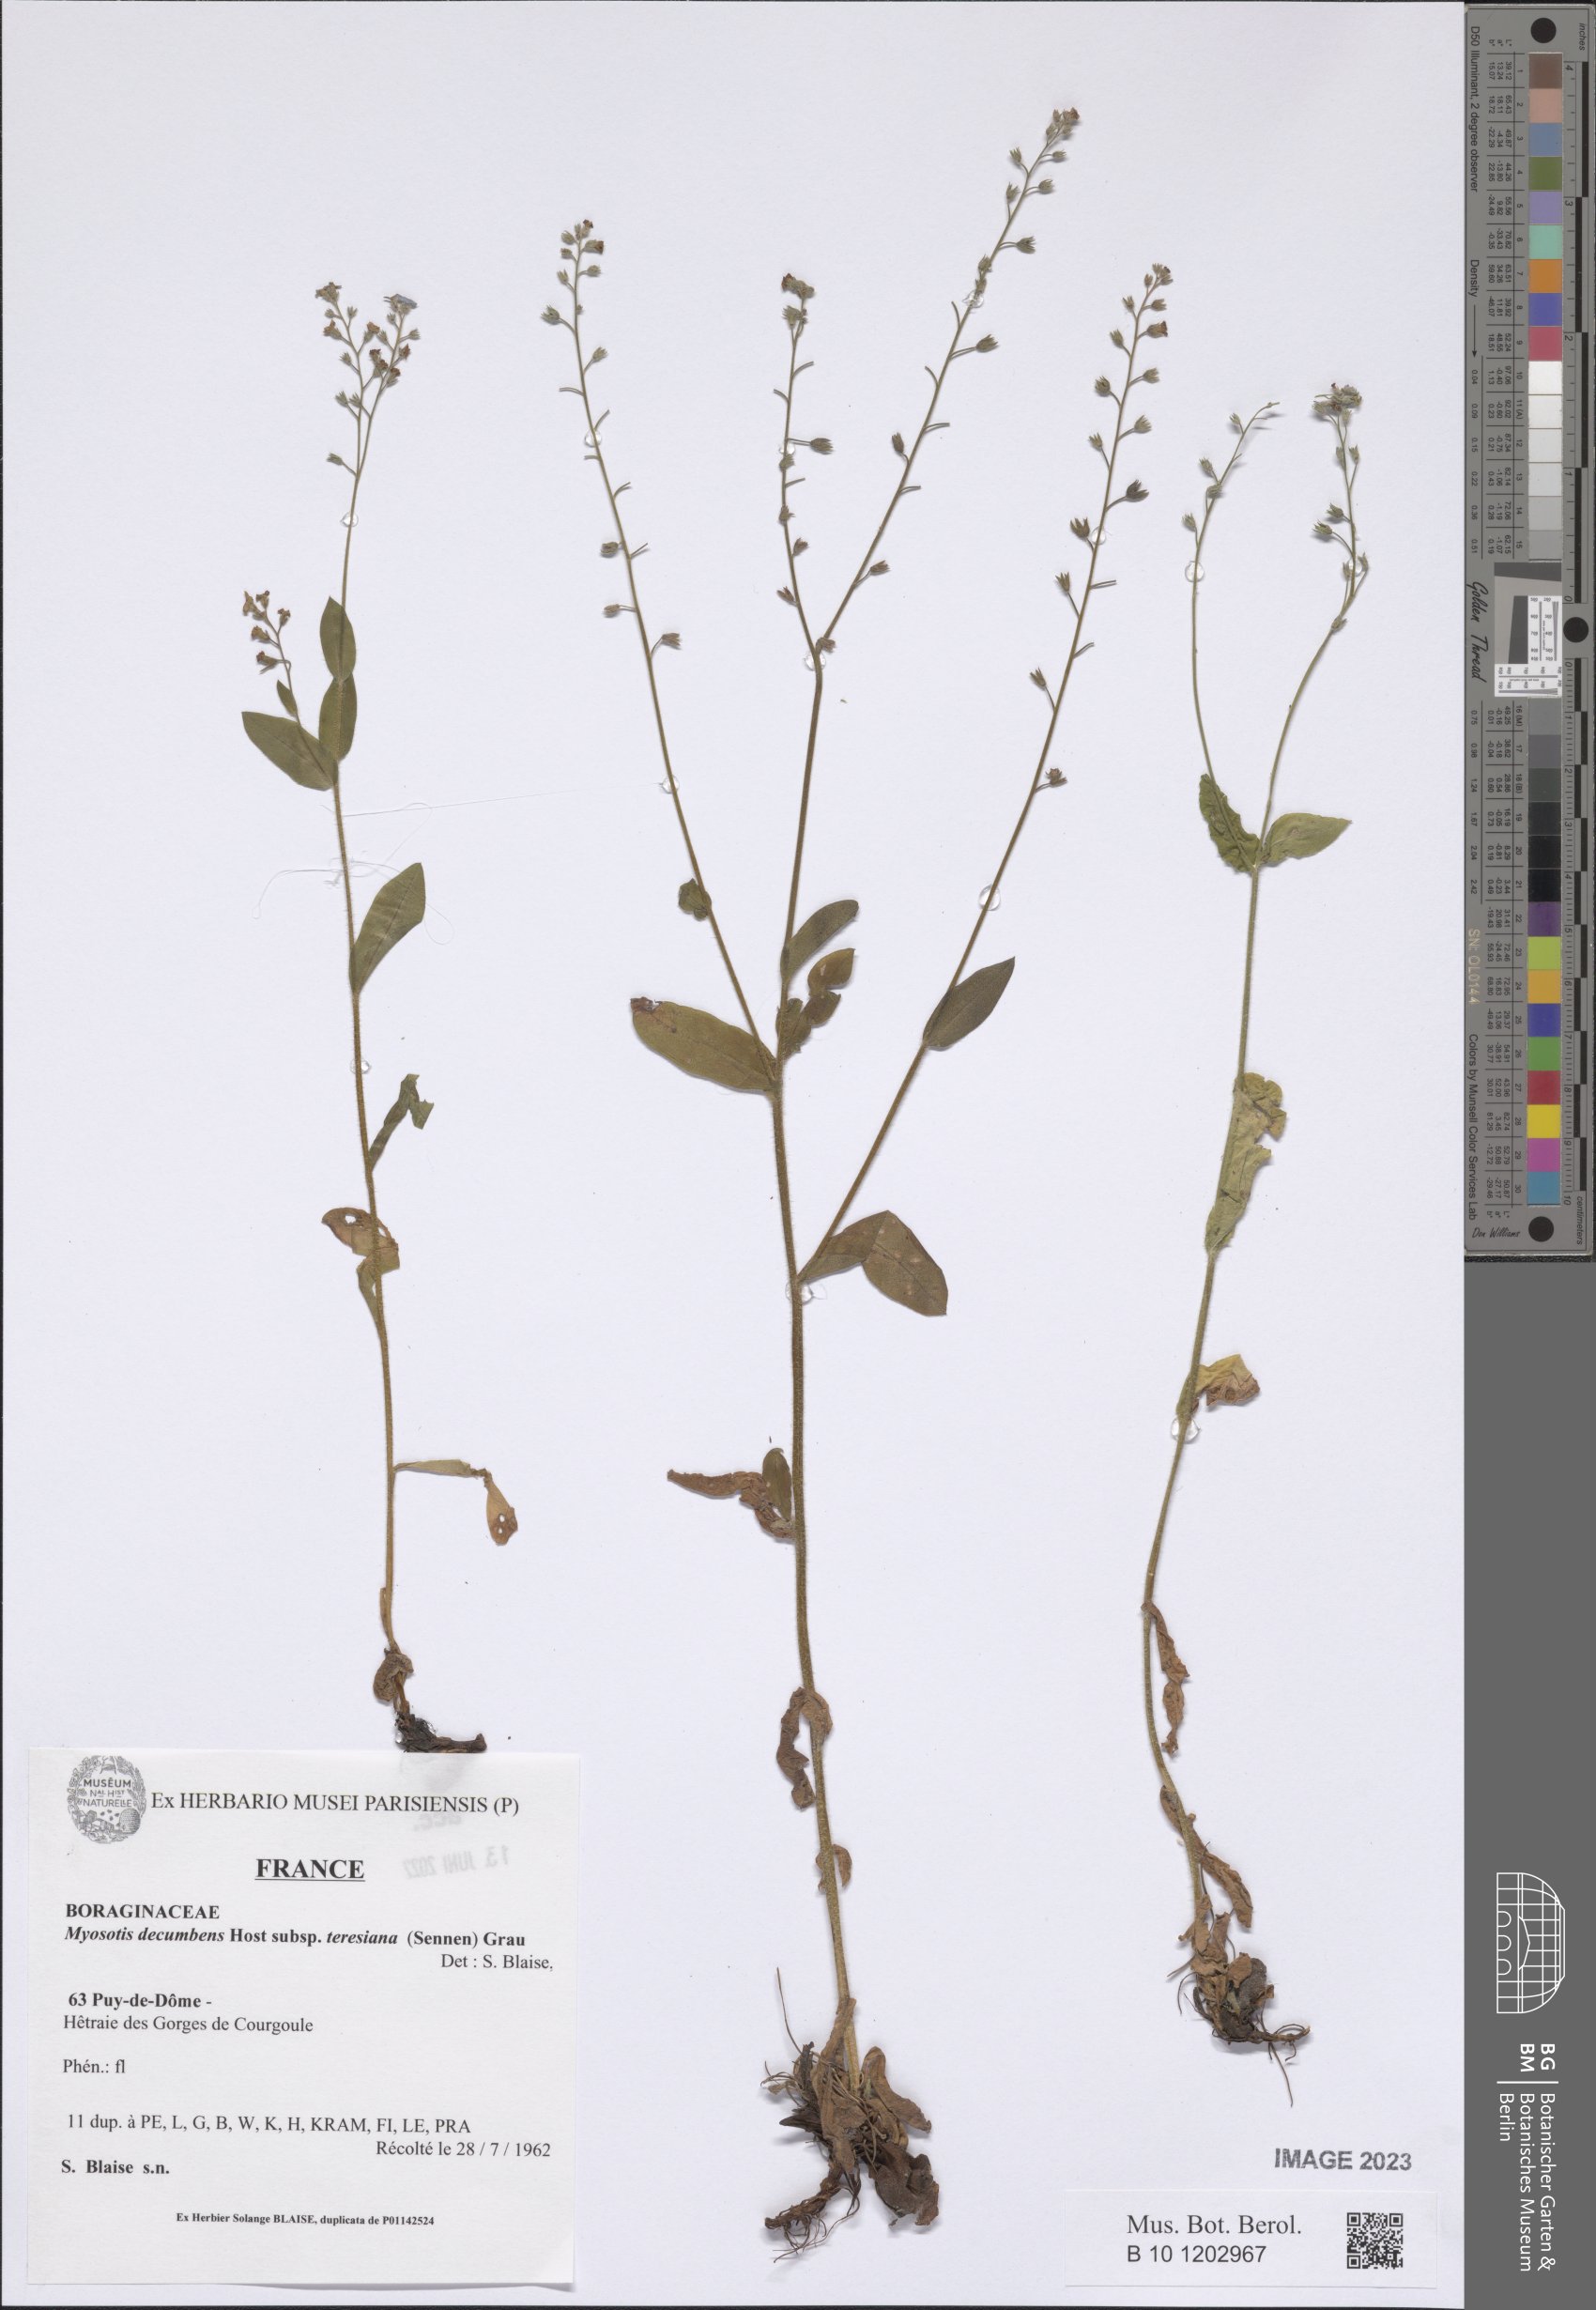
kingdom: Plantae
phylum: Tracheophyta
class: Magnoliopsida
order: Boraginales
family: Boraginaceae
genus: Myosotis
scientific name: Myosotis decumbens
